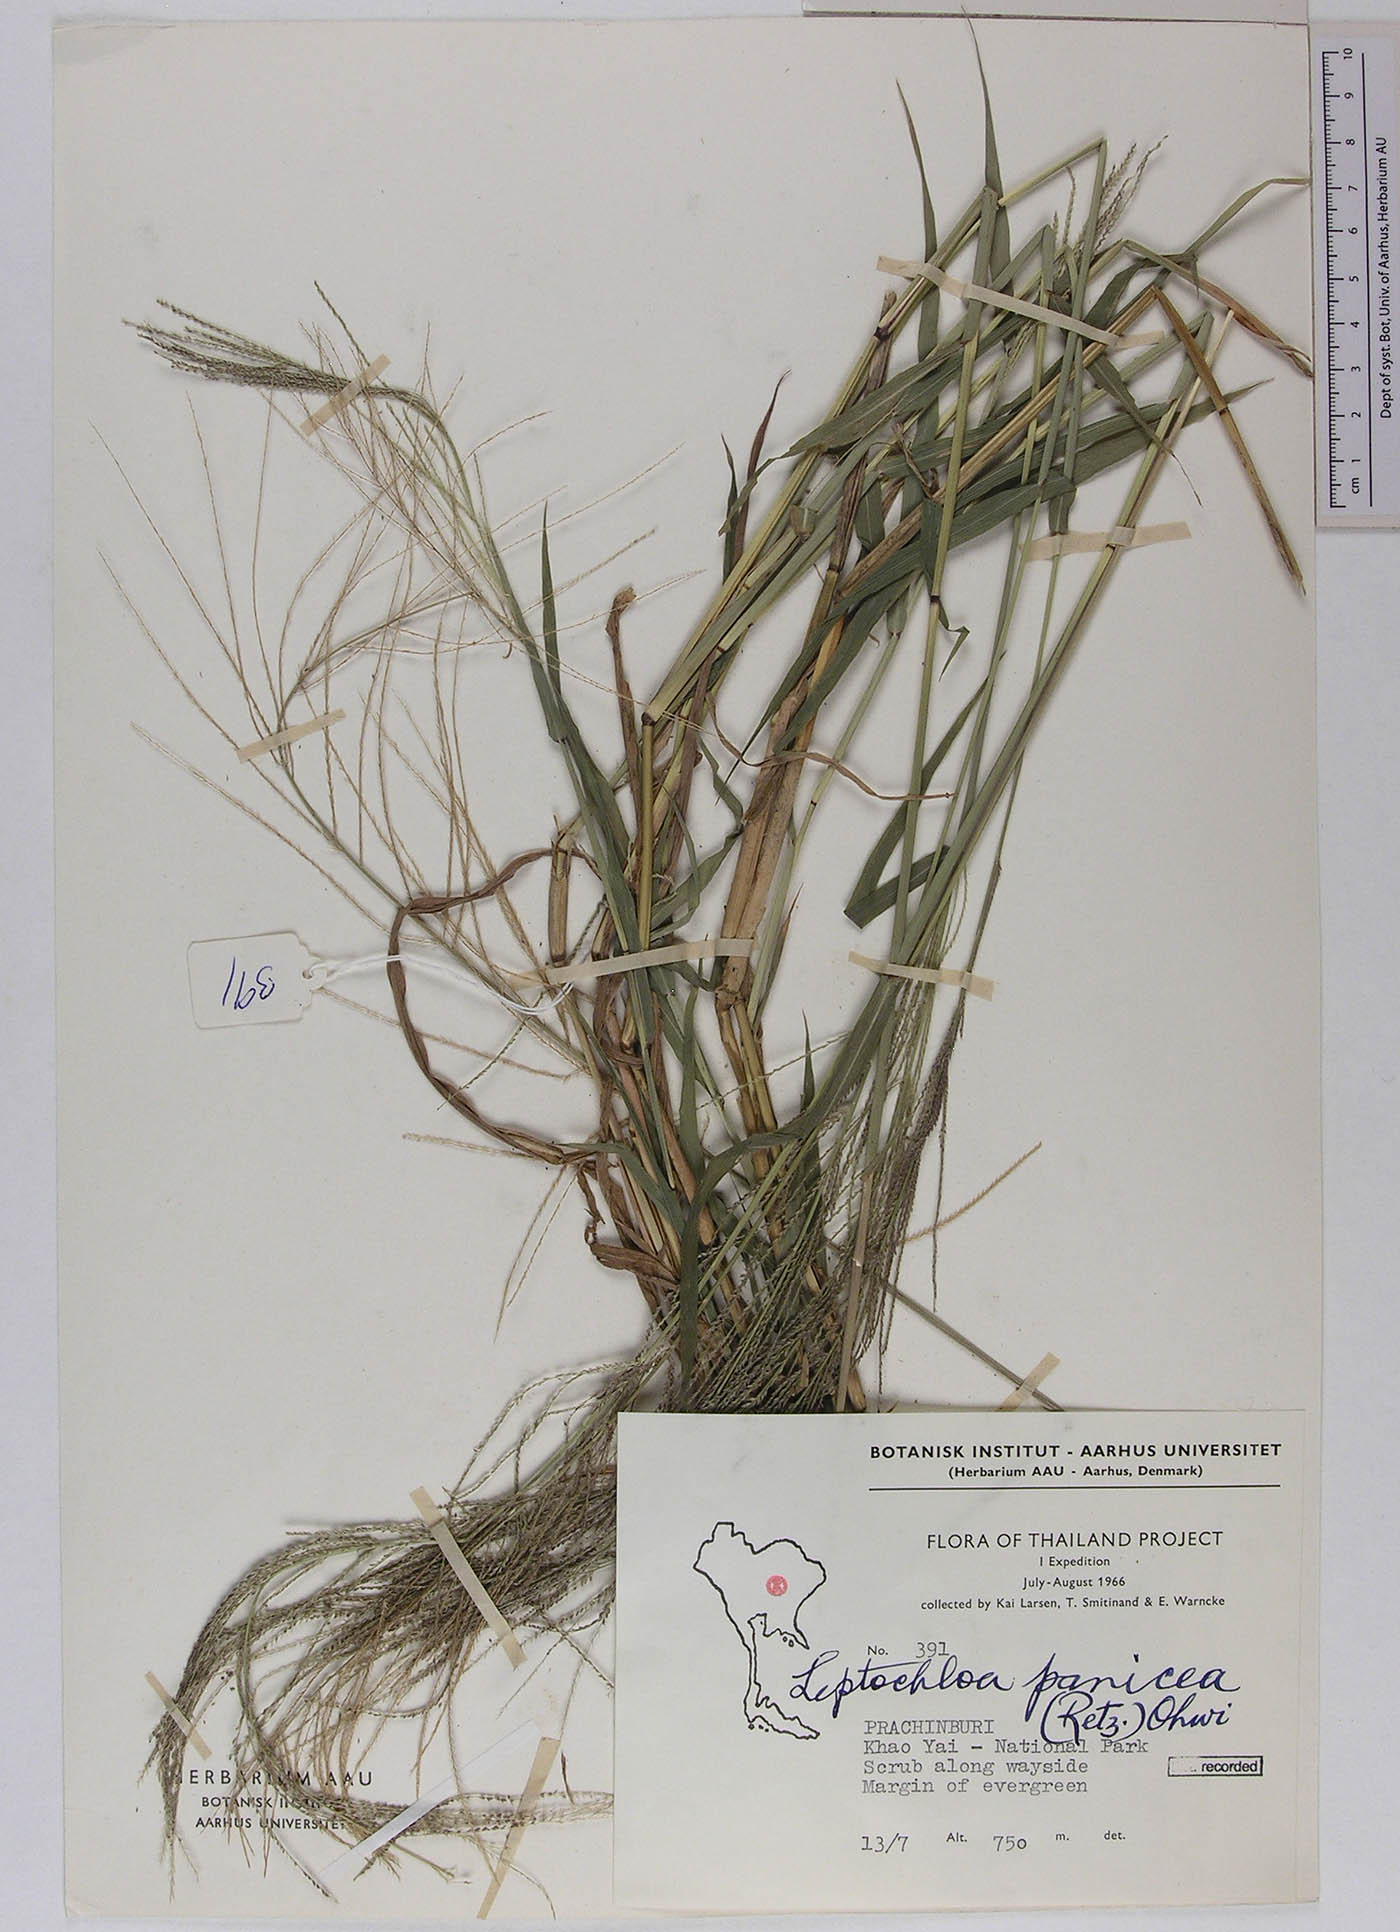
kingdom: Plantae
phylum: Tracheophyta
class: Liliopsida
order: Poales
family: Poaceae
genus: Leptochloa
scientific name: Leptochloa panicea
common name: Mucronate sprangletop
